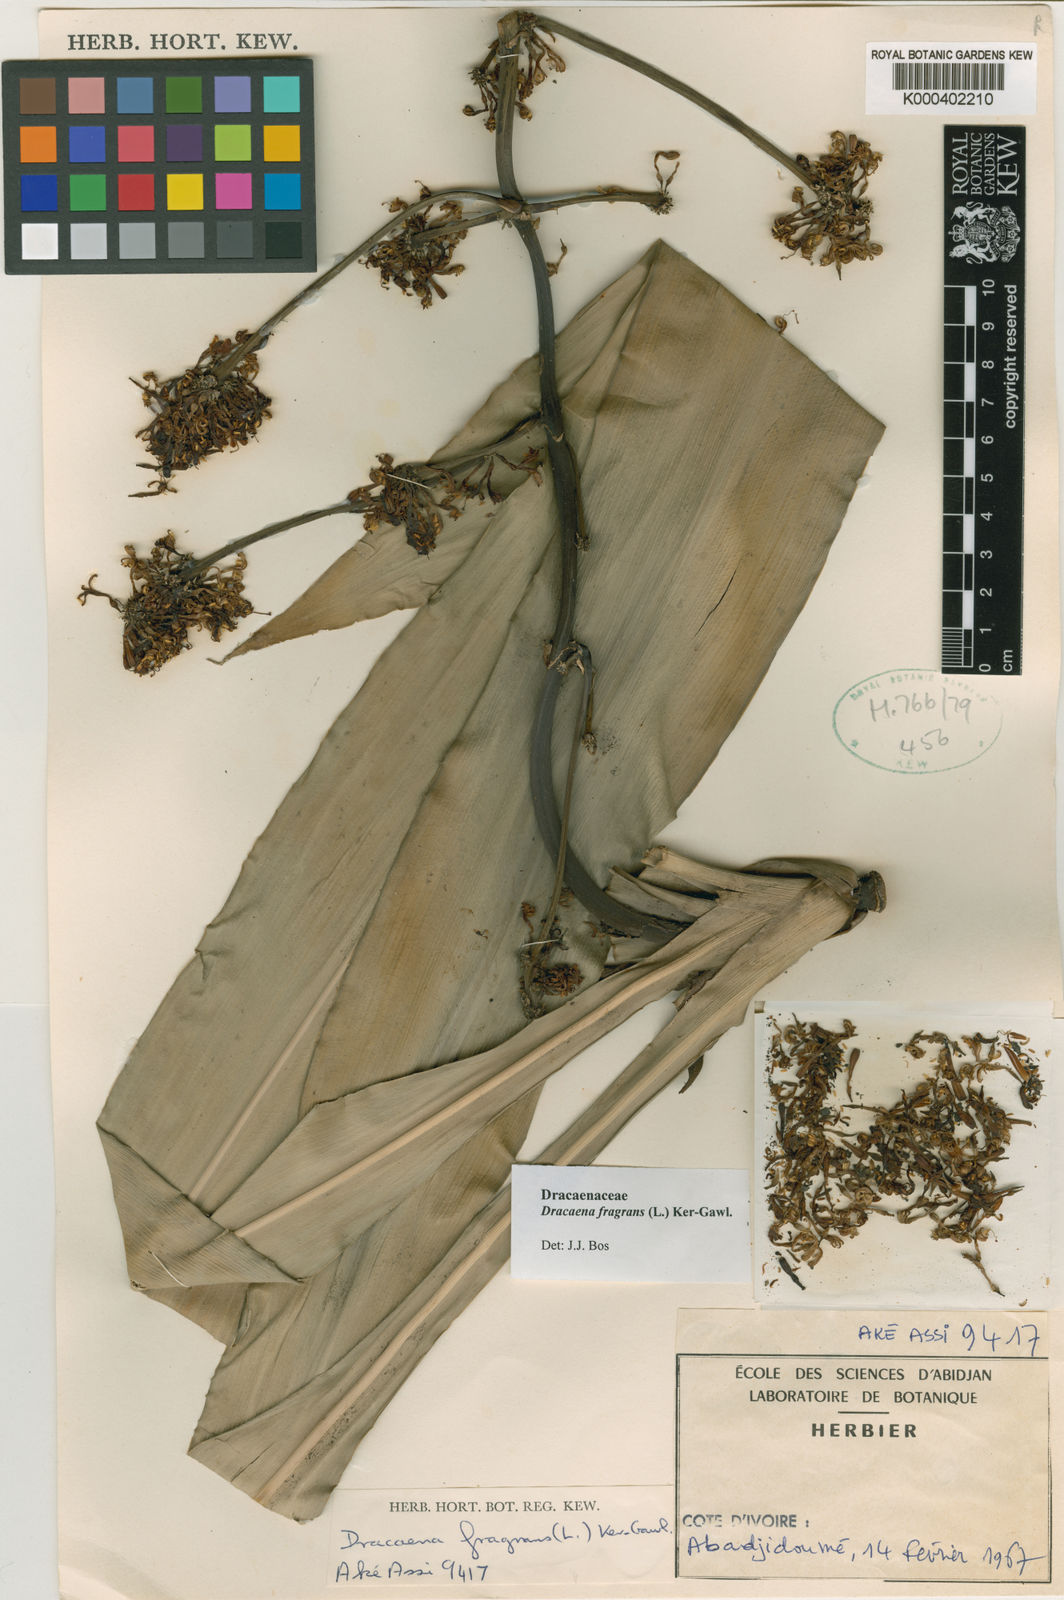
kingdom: Plantae
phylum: Tracheophyta
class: Liliopsida
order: Asparagales
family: Asparagaceae
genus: Dracaena
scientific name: Dracaena fragrans
